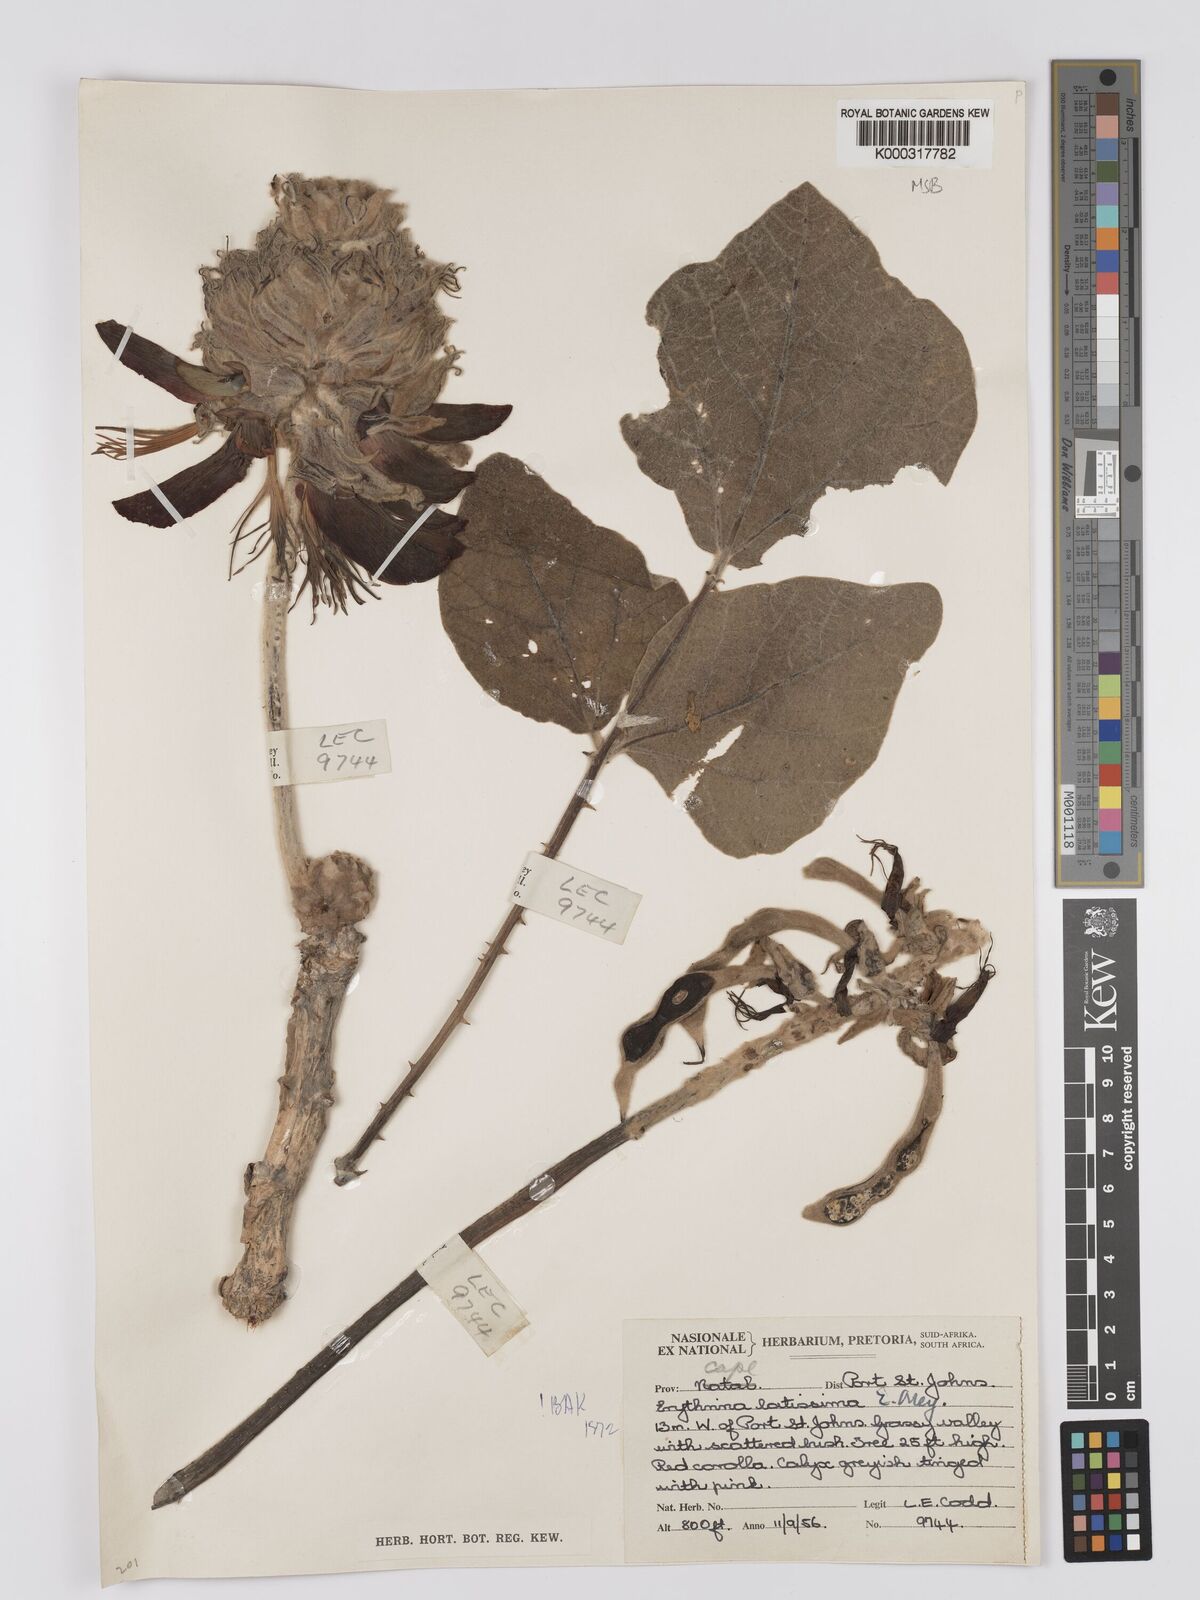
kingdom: Plantae
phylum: Tracheophyta
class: Magnoliopsida
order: Fabales
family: Fabaceae
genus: Erythrina
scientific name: Erythrina latissima
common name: Broad-leaved coral tree
